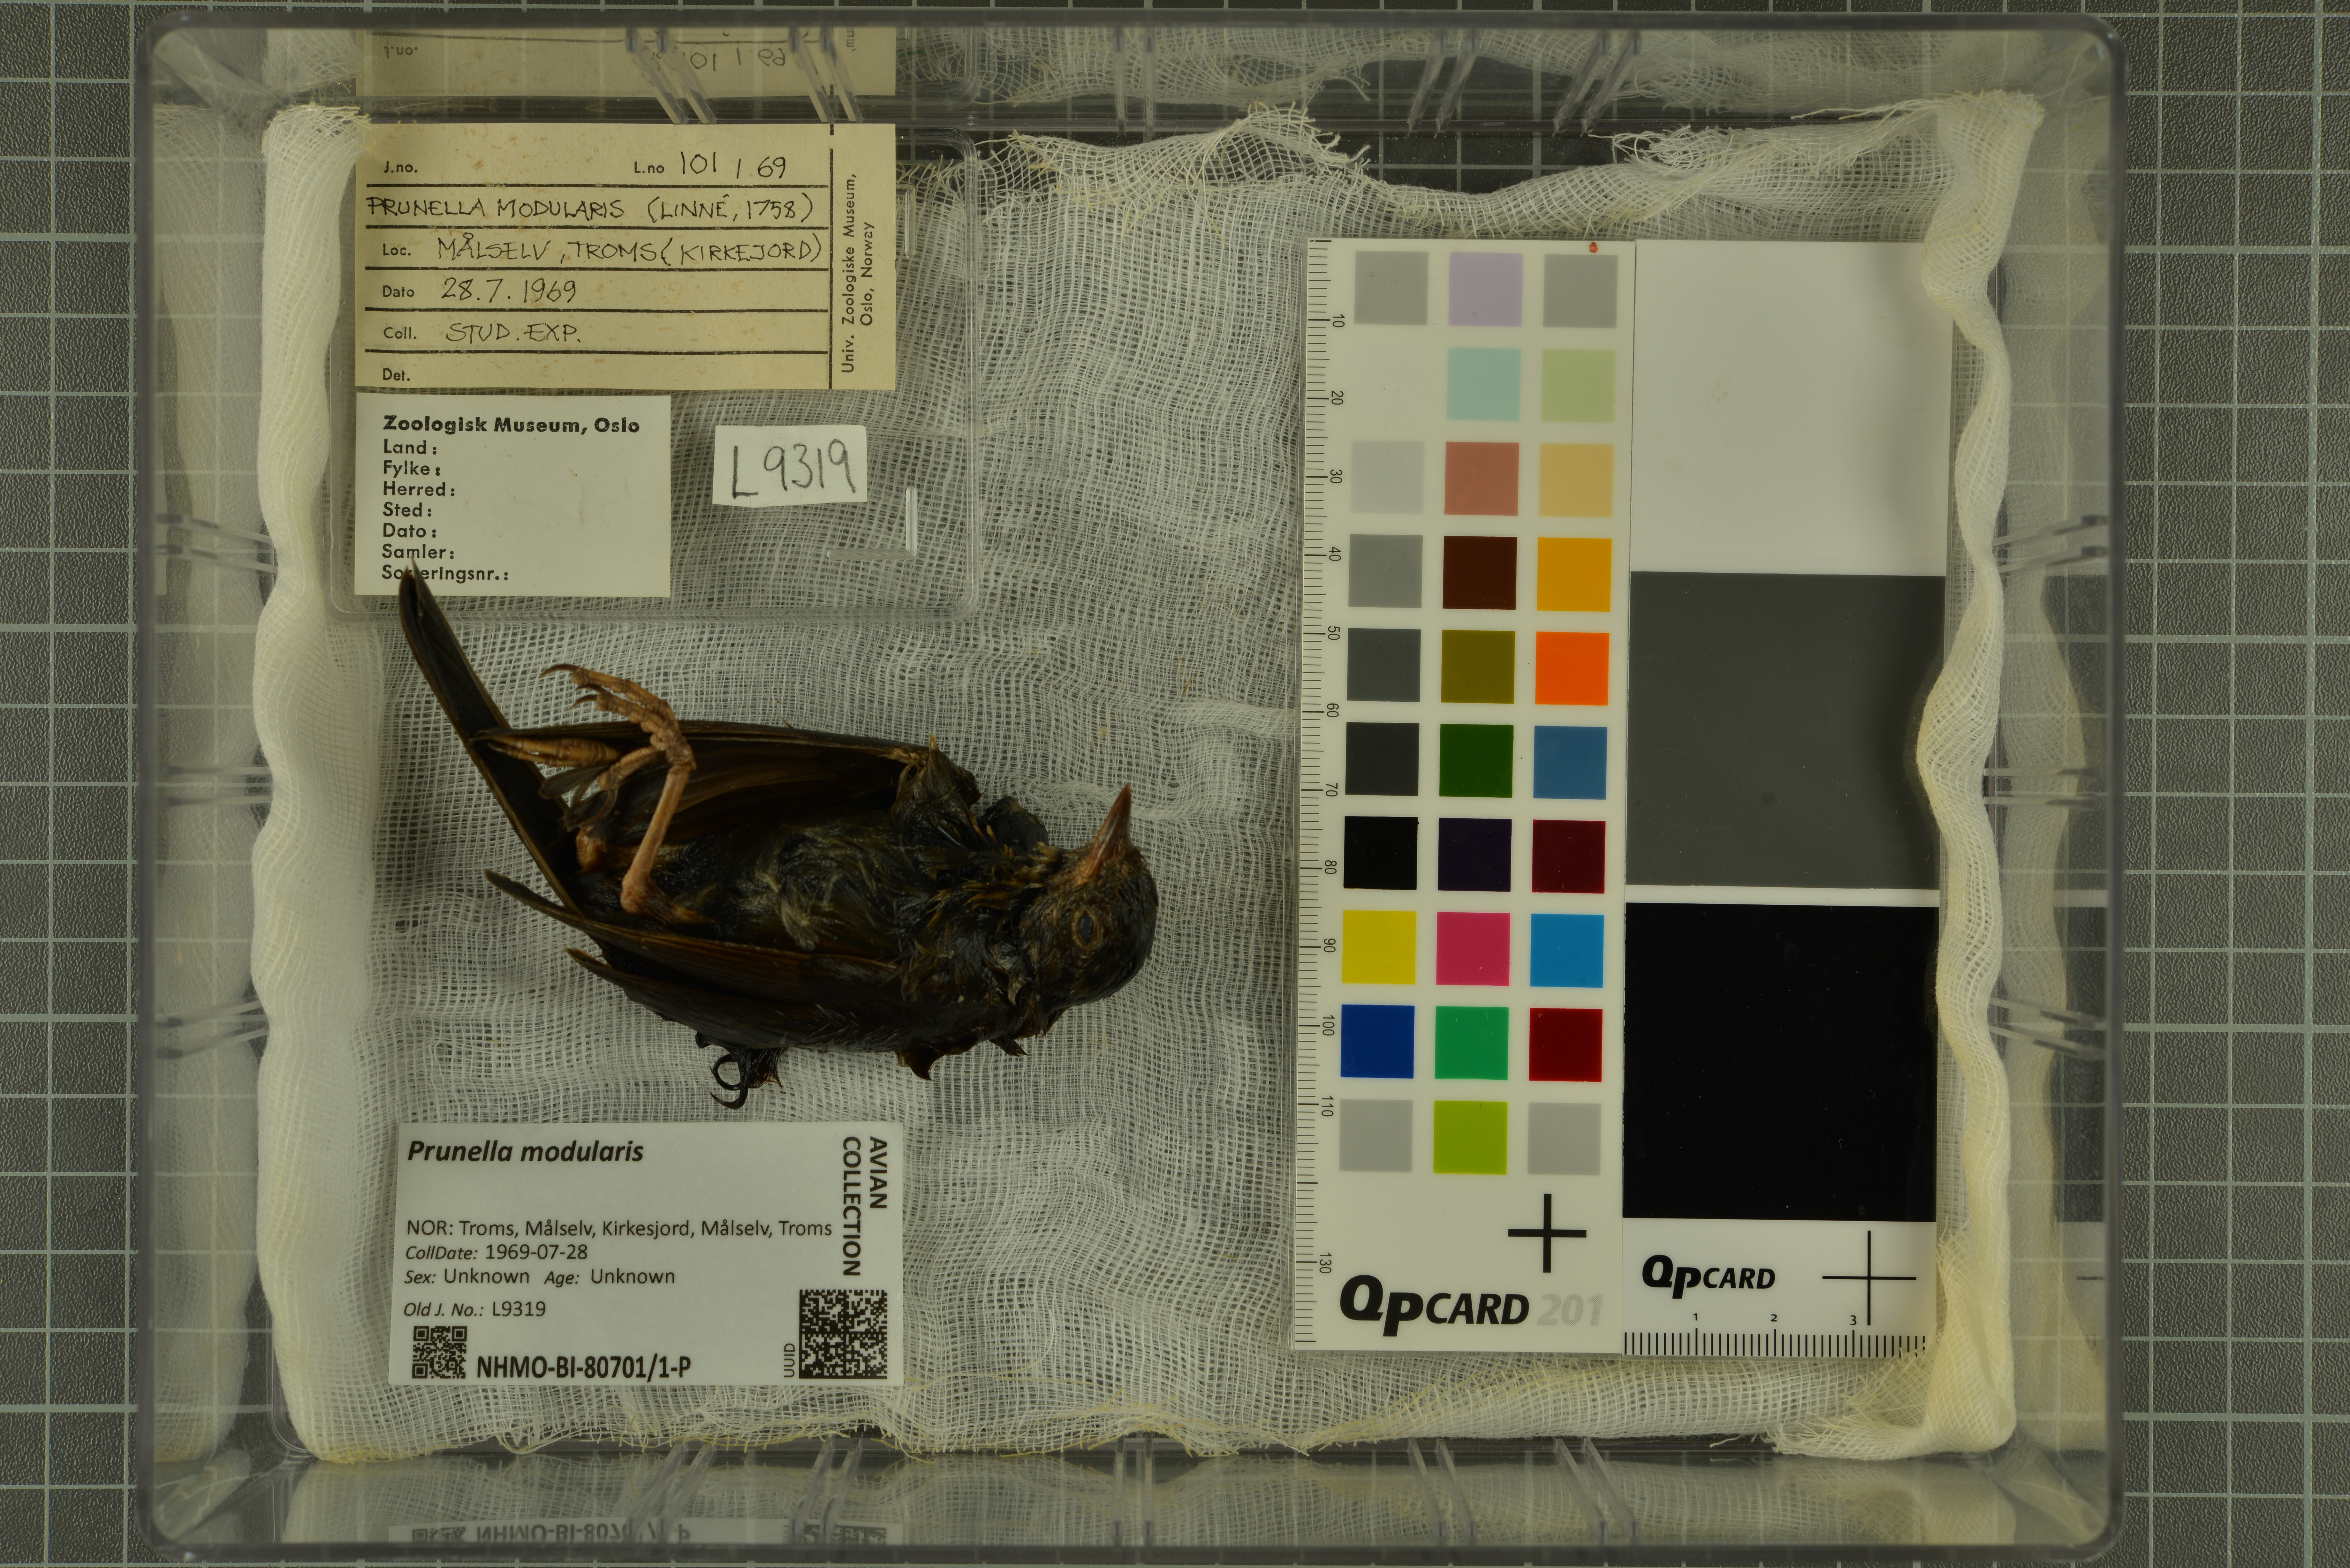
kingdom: Animalia
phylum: Chordata
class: Aves
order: Passeriformes
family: Prunellidae
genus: Prunella
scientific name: Prunella modularis
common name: Dunnock
